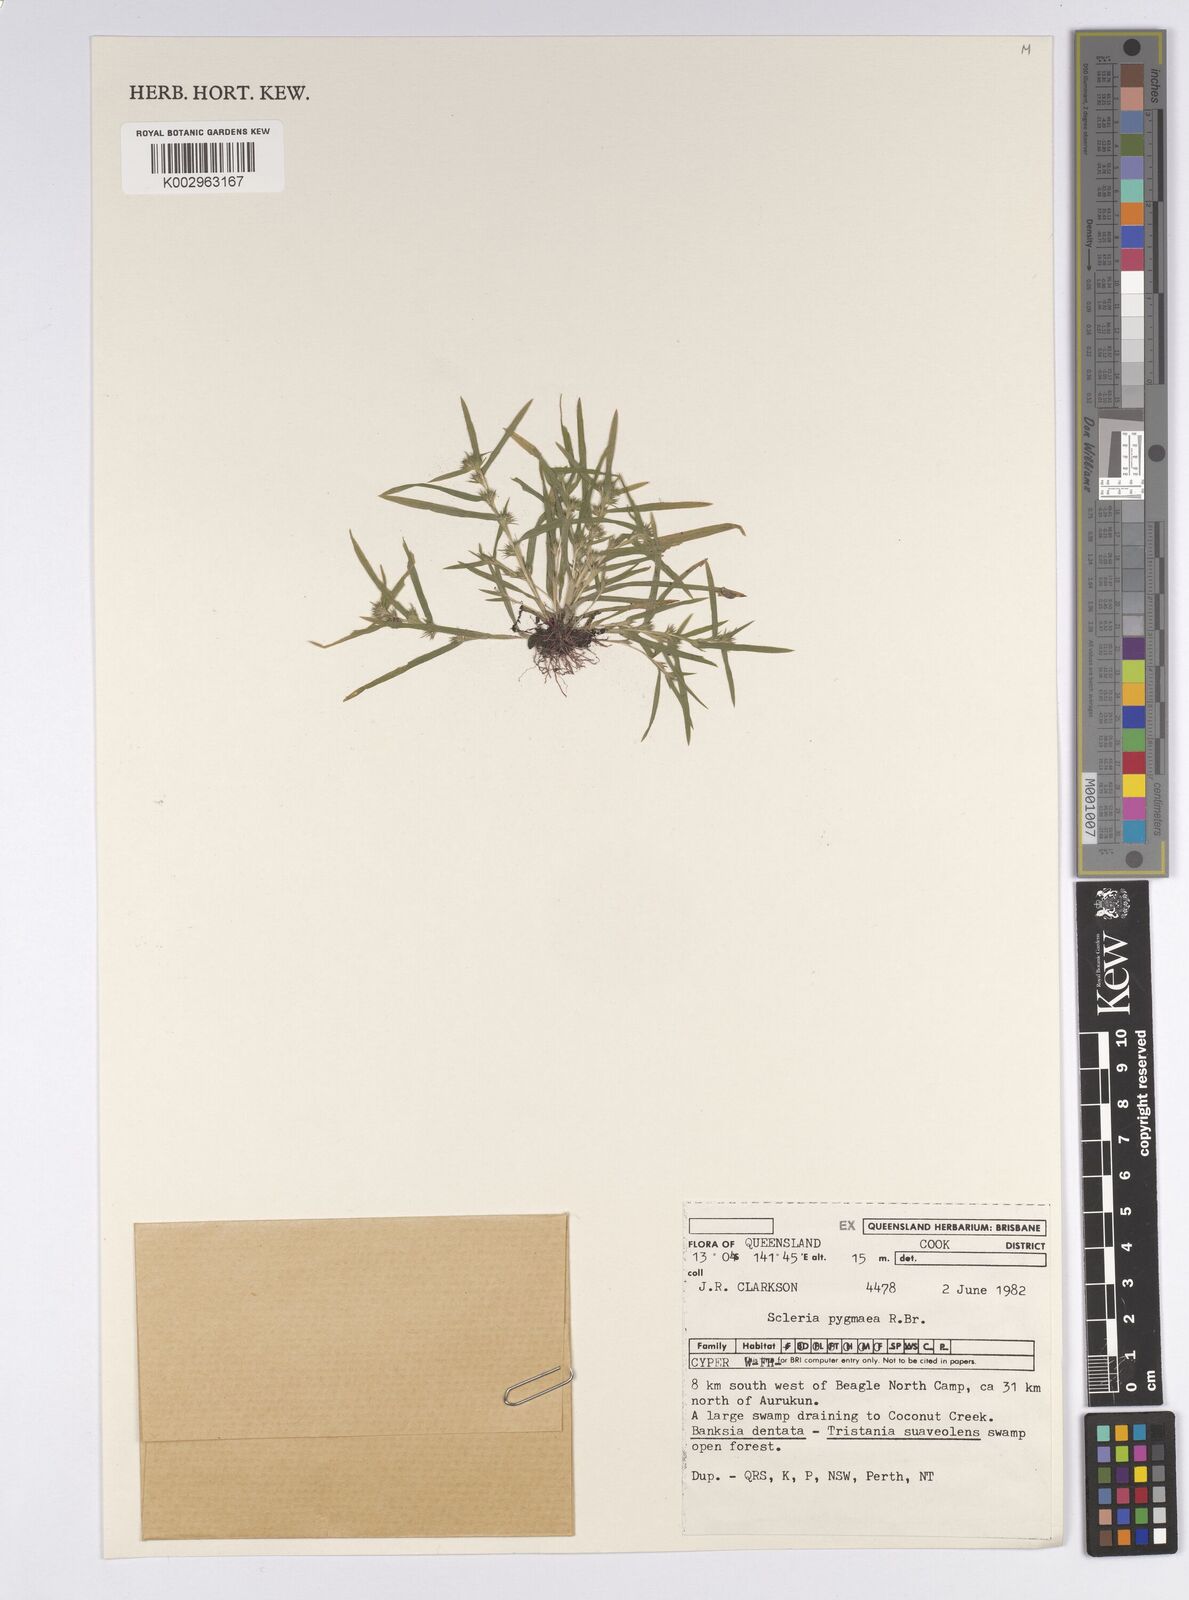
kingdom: Plantae
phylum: Tracheophyta
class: Liliopsida
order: Poales
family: Cyperaceae
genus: Diplacrum
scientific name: Diplacrum pygmaeum
